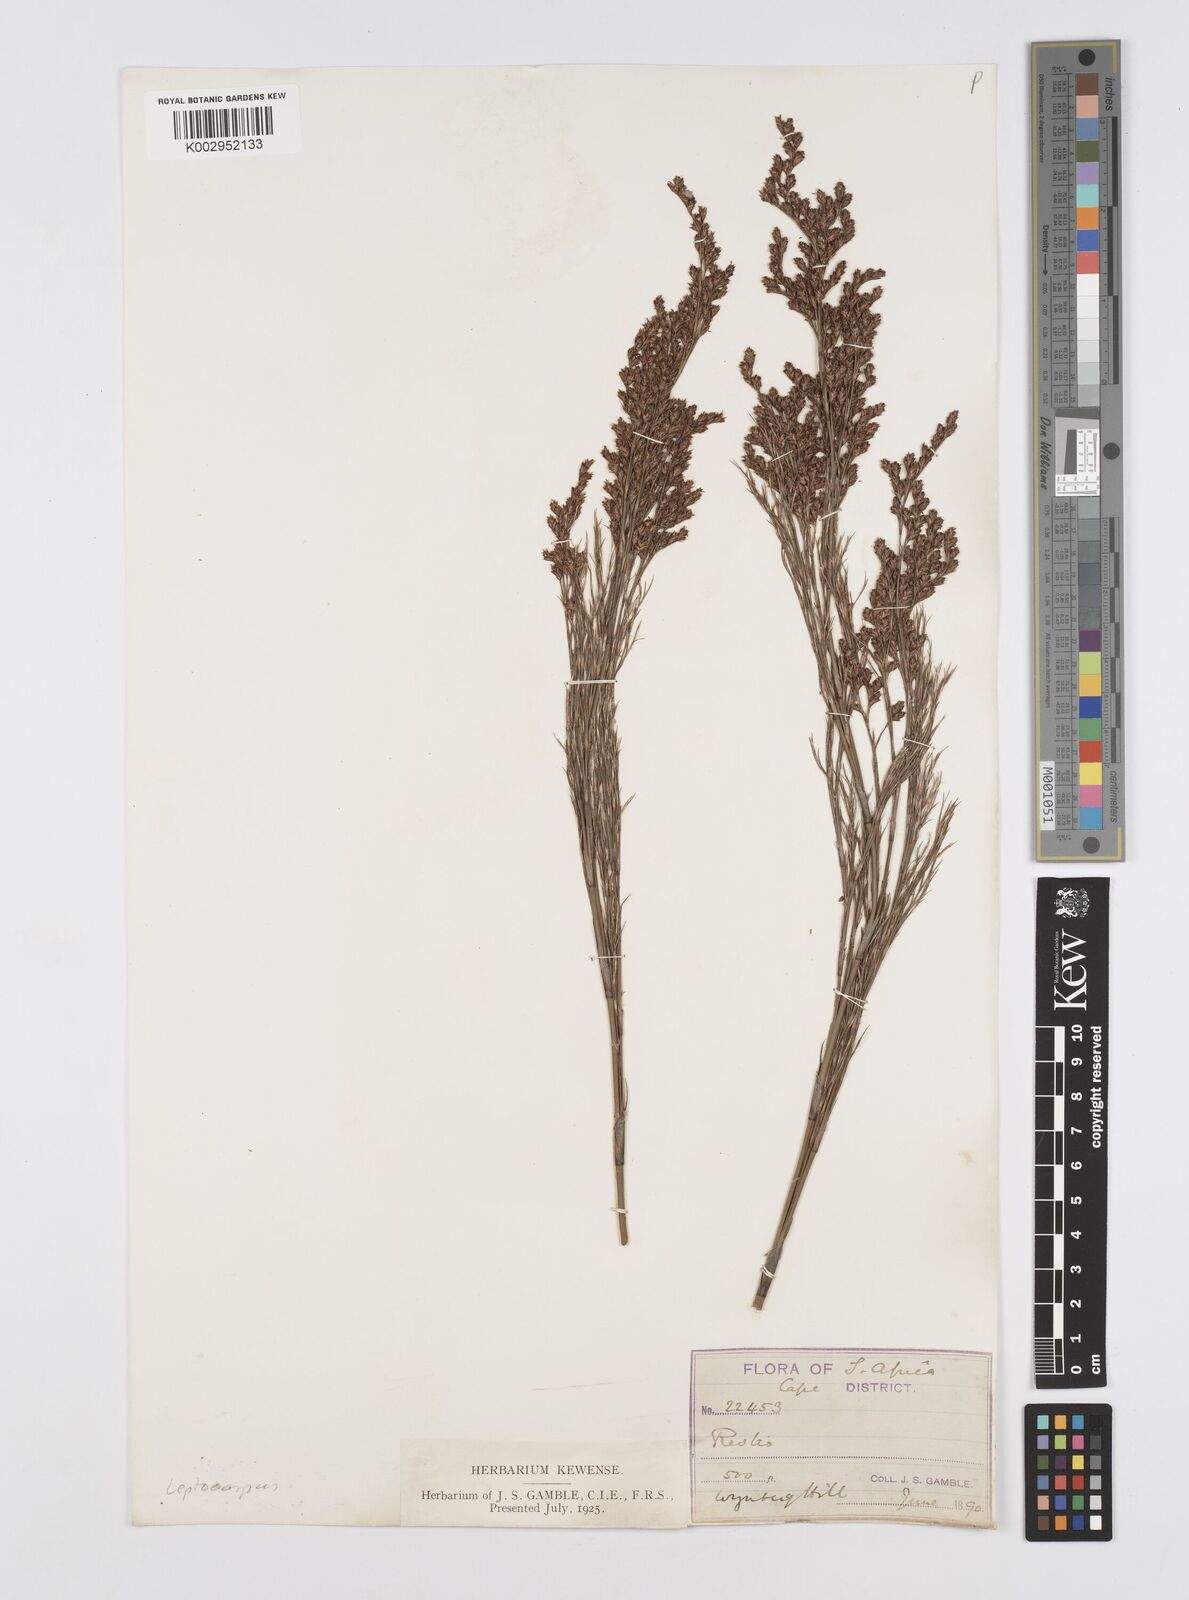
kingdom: Plantae
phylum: Tracheophyta
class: Liliopsida
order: Poales
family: Restionaceae
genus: Restio
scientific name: Restio paniculatus
